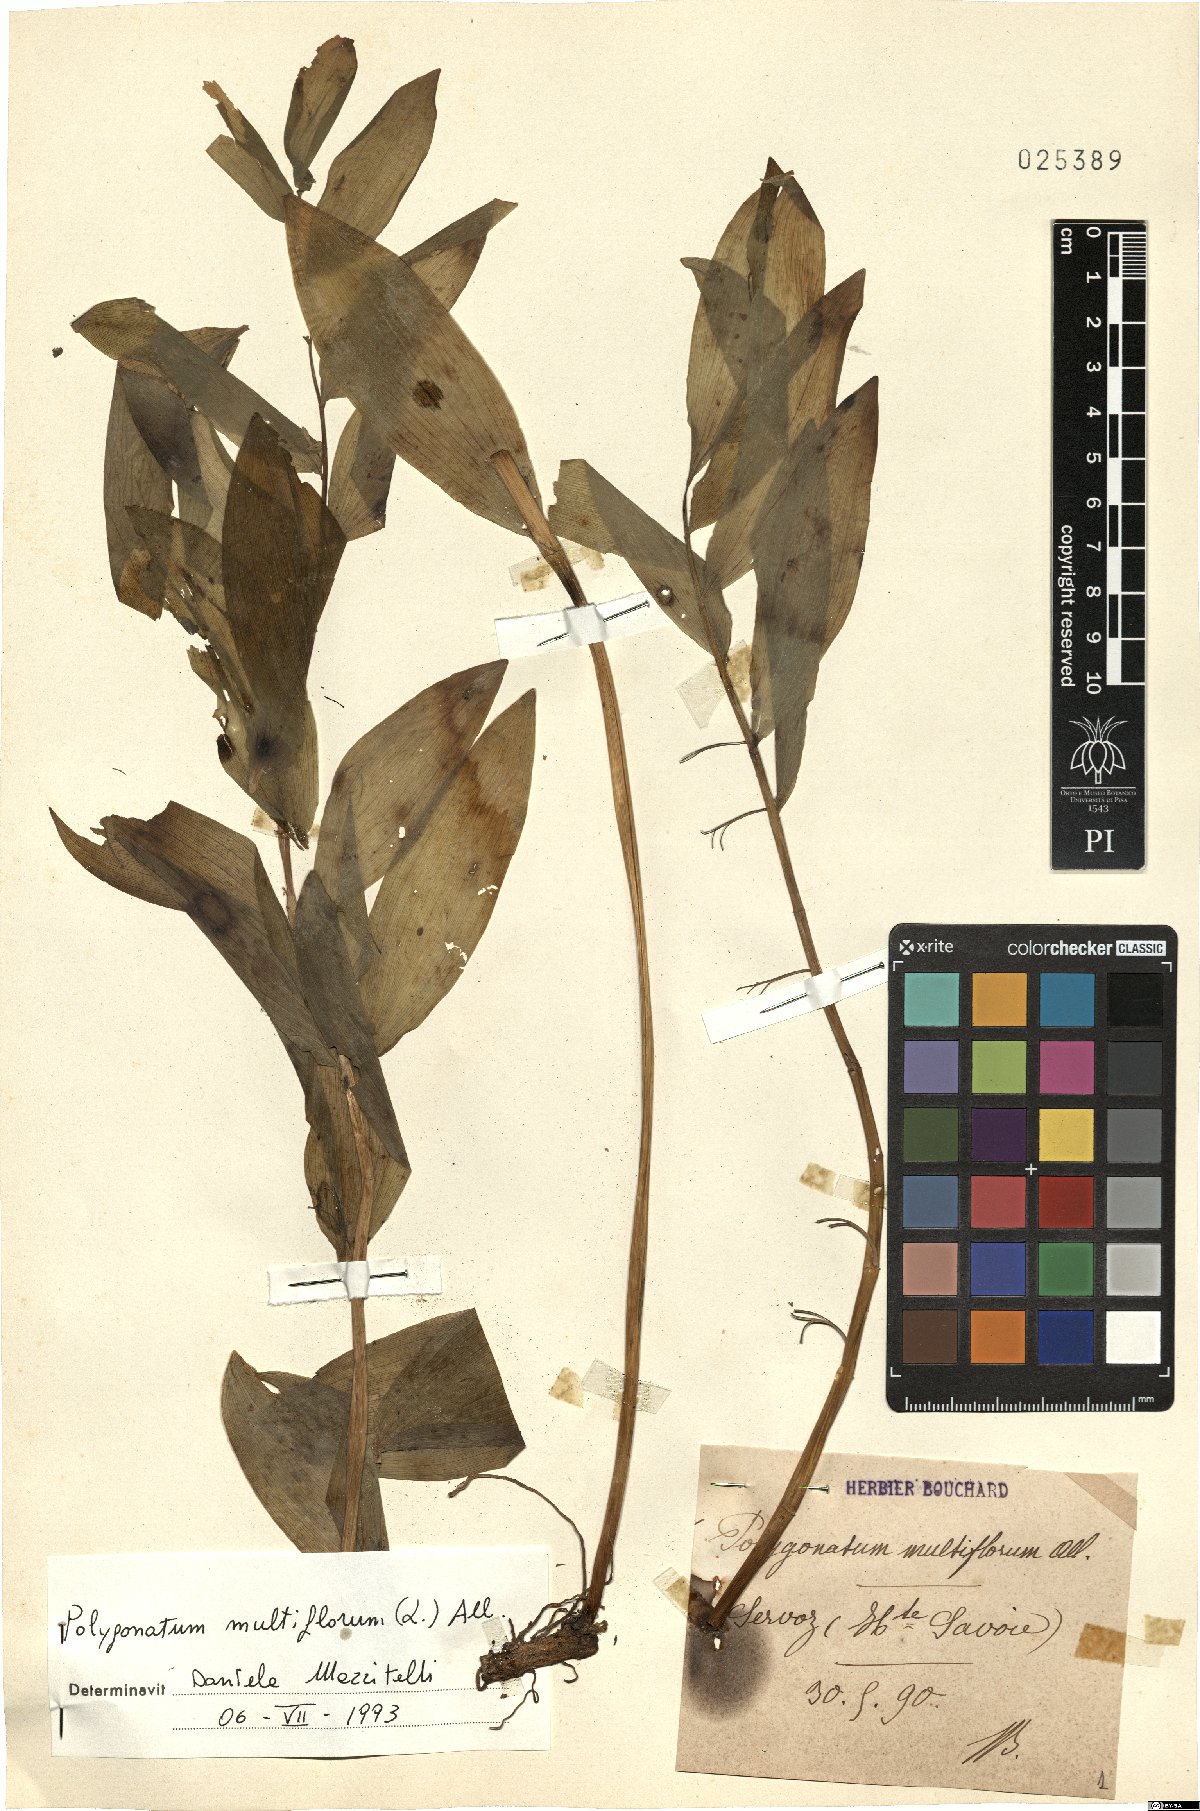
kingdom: Plantae
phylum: Tracheophyta
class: Liliopsida
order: Asparagales
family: Asparagaceae
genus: Polygonatum
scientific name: Polygonatum multiflorum
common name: Solomon's-seal
